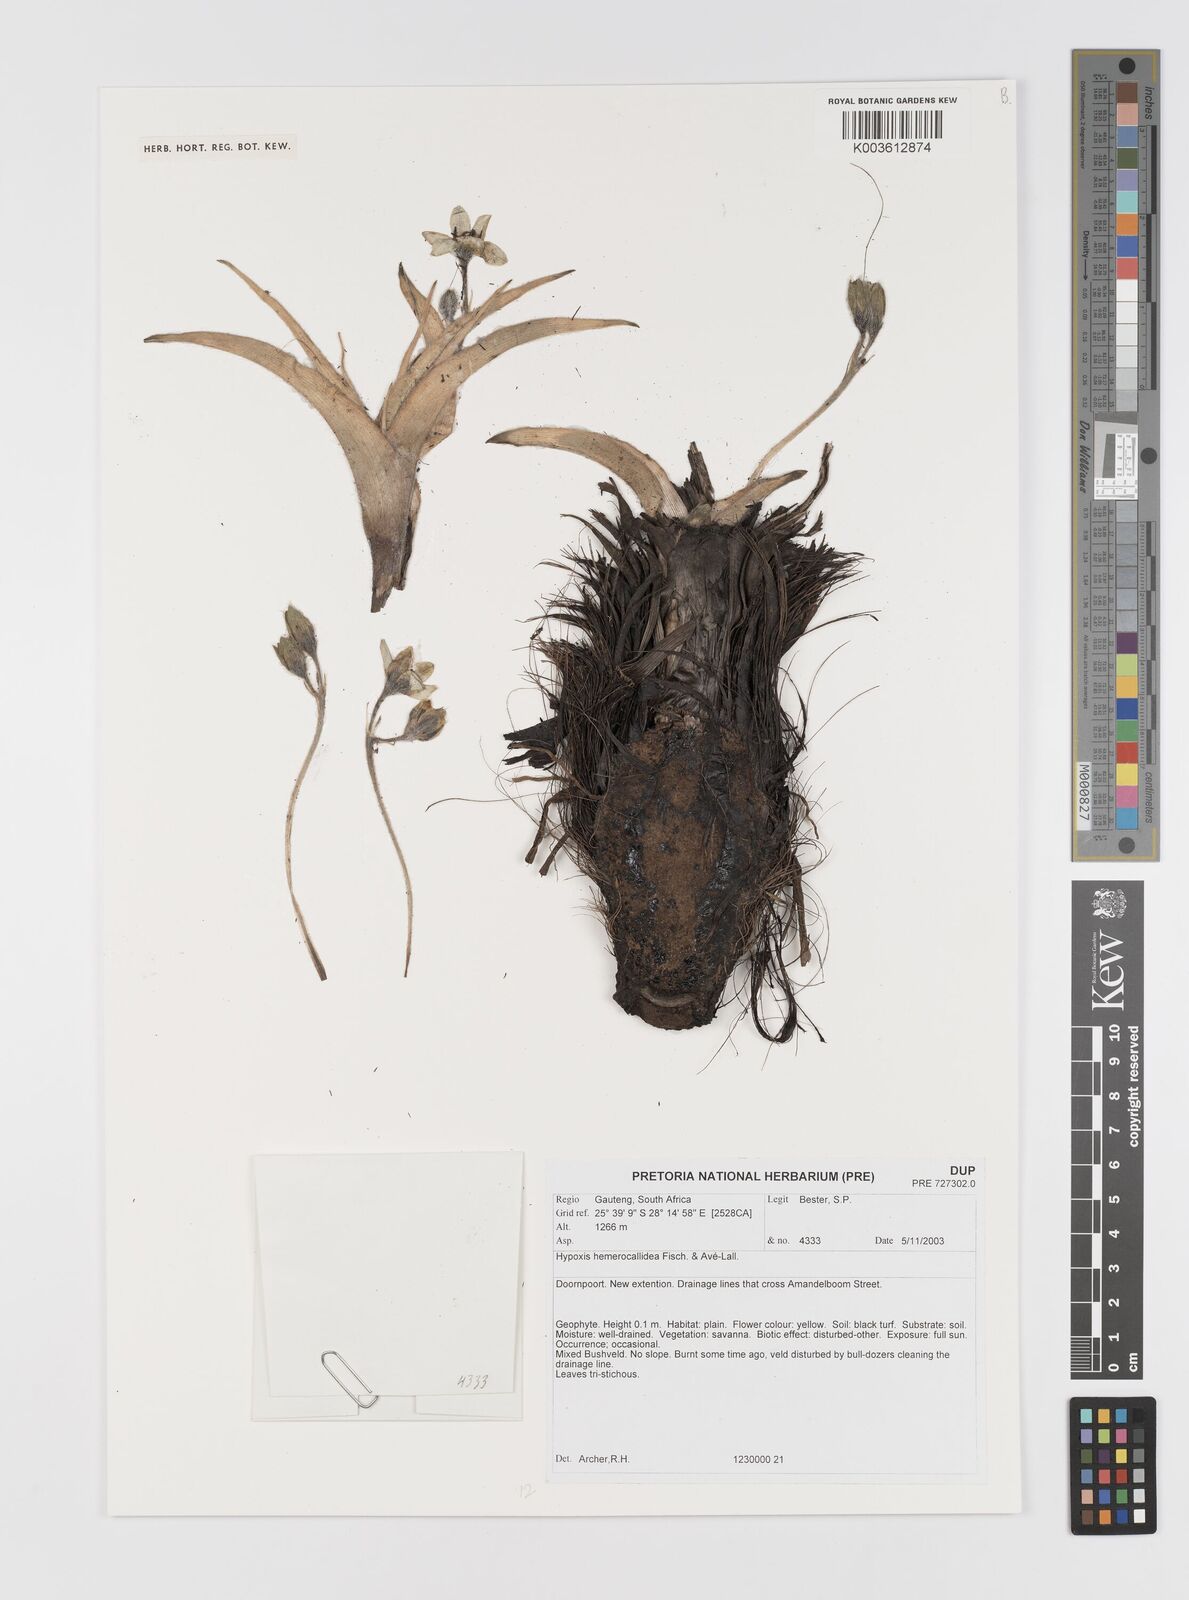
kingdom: Plantae
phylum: Tracheophyta
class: Liliopsida
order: Asparagales
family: Hypoxidaceae
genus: Hypoxis
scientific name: Hypoxis hemerocallidea
